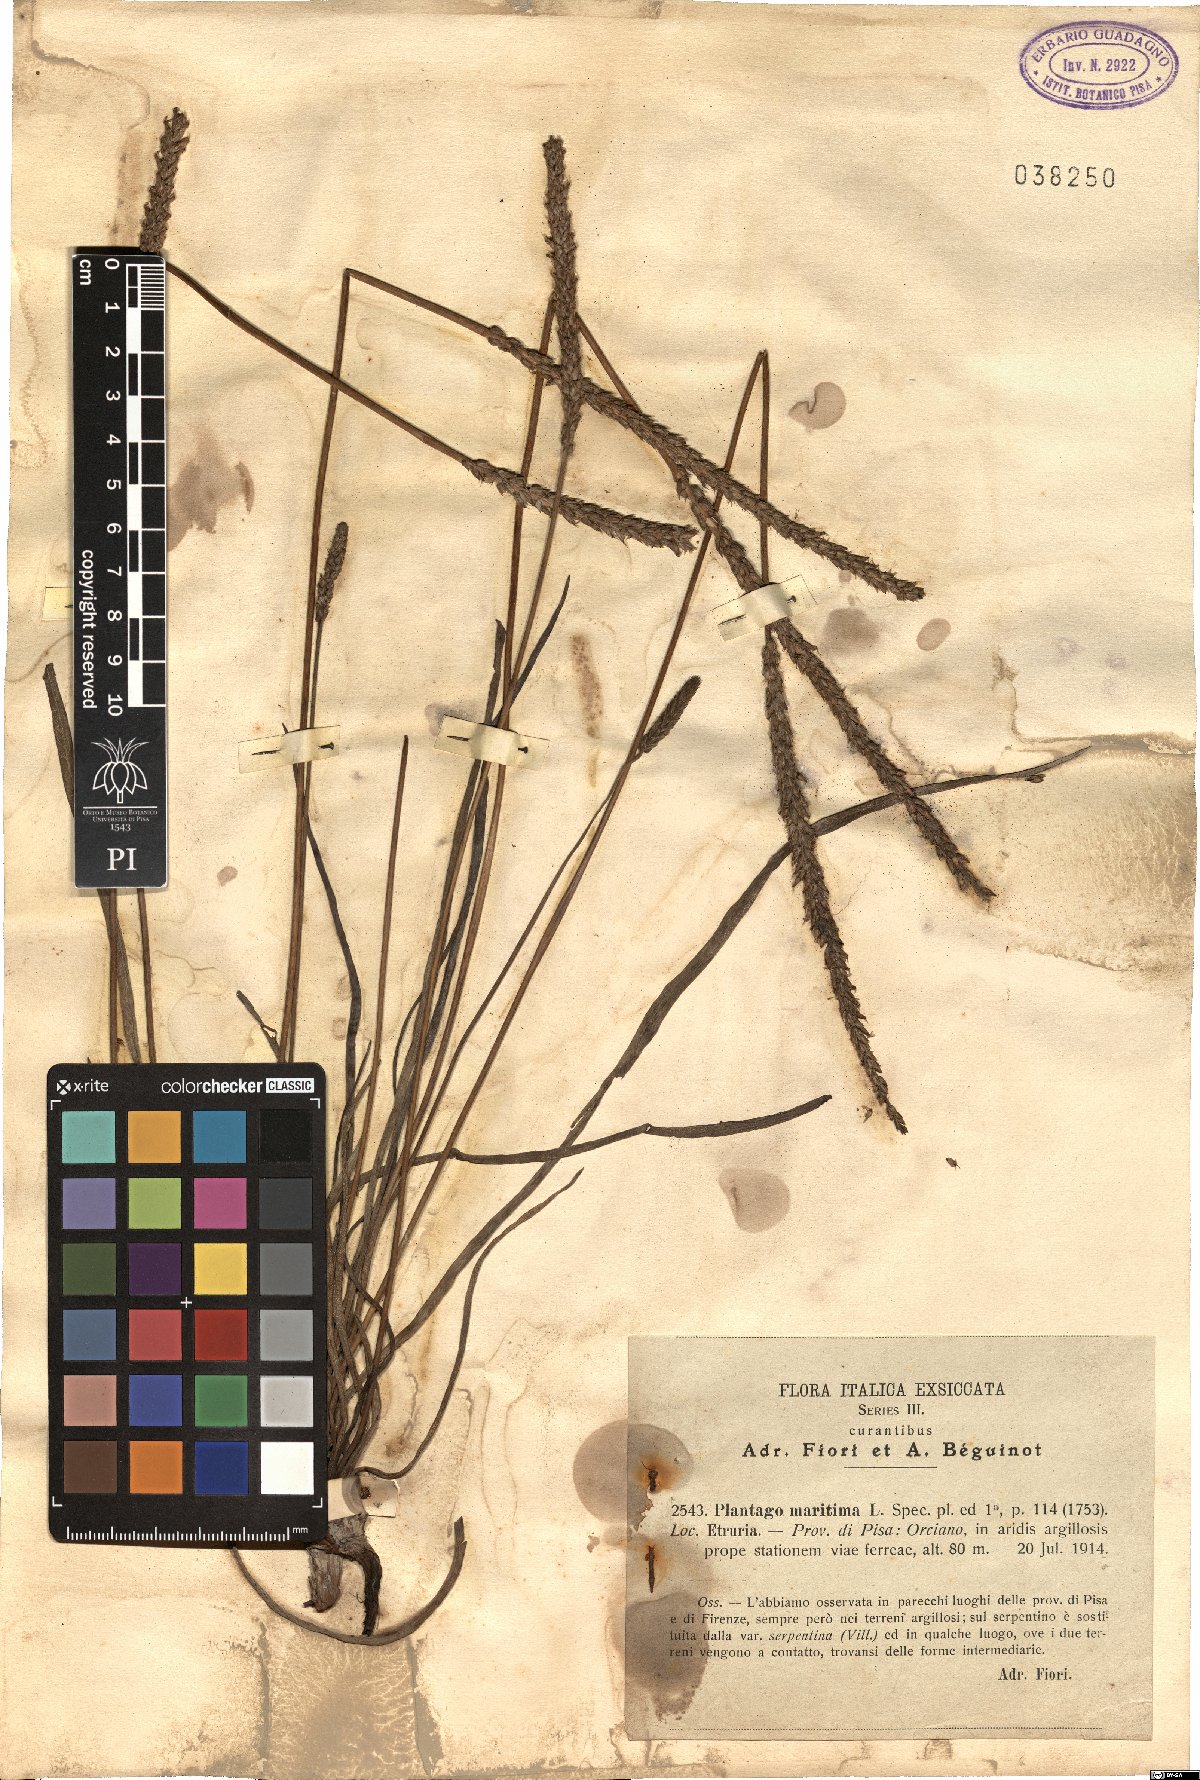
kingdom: Plantae
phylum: Tracheophyta
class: Magnoliopsida
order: Lamiales
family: Plantaginaceae
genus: Plantago
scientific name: Plantago maritima
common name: Sea plantain
